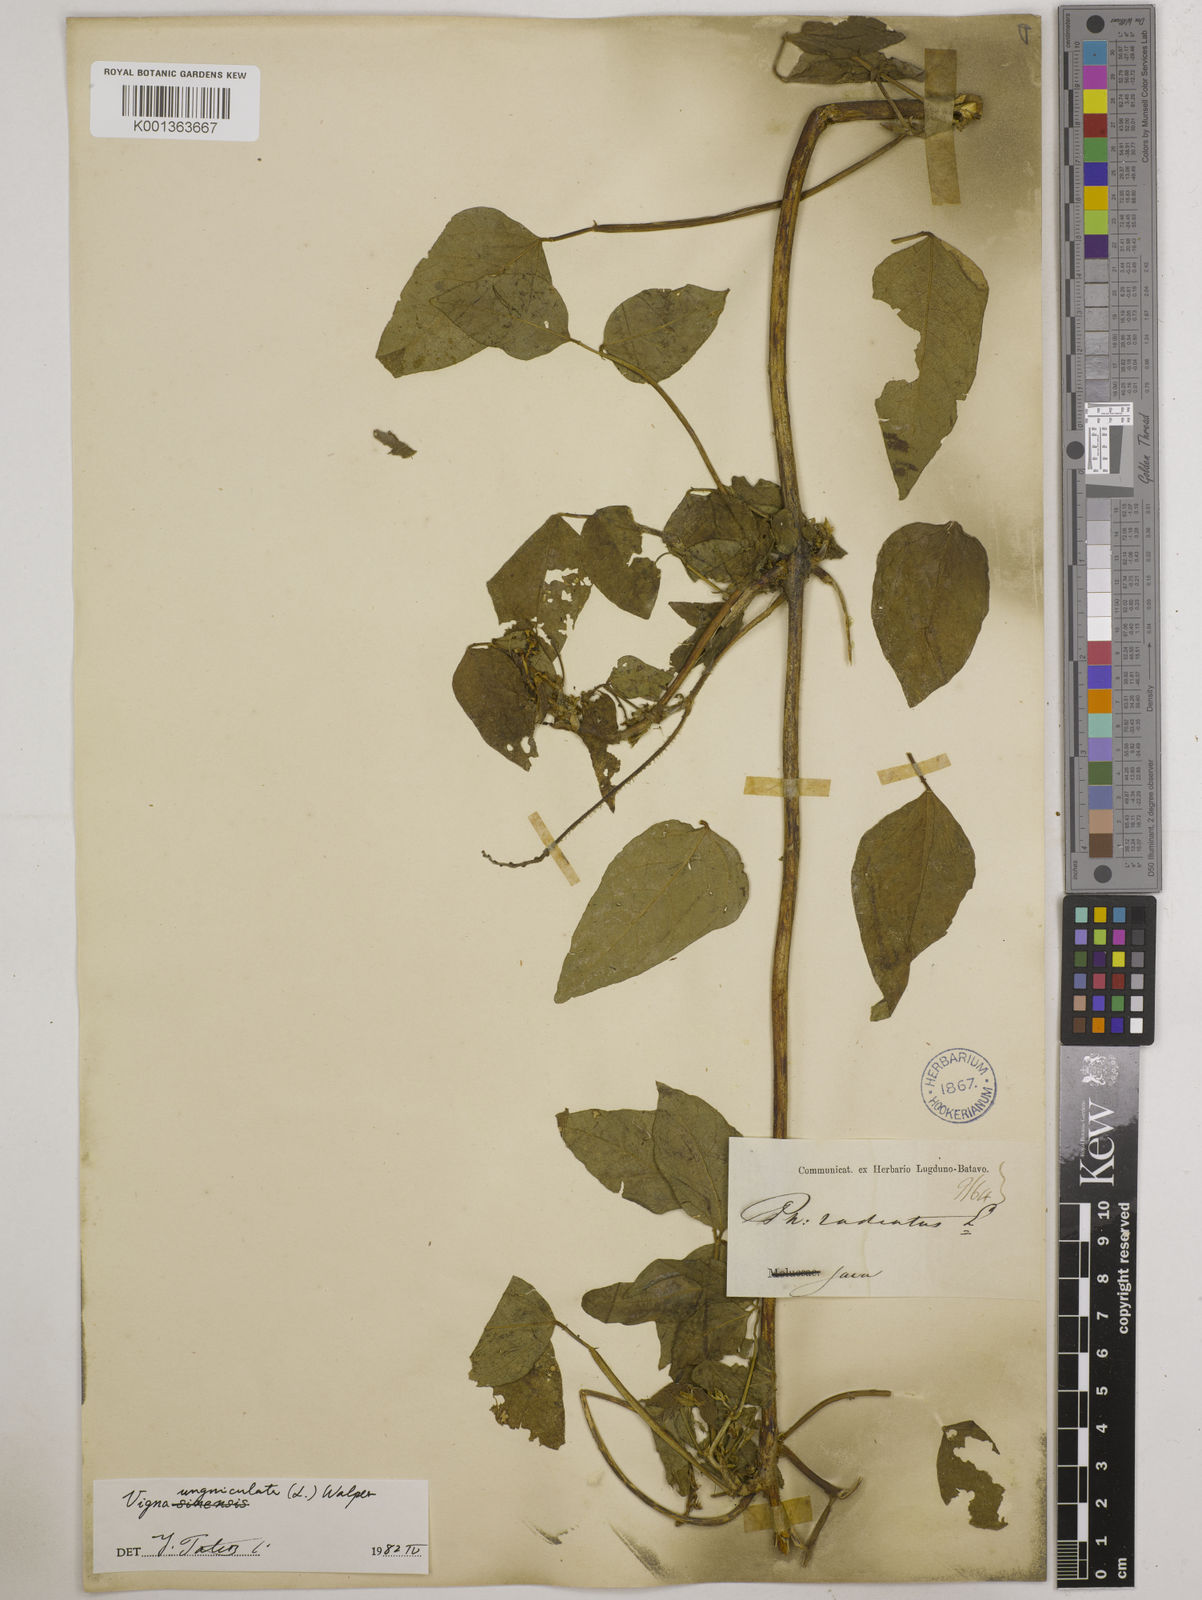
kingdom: Plantae
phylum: Tracheophyta
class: Magnoliopsida
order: Fabales
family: Fabaceae
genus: Vigna
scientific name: Vigna unguiculata
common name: Cowpea
